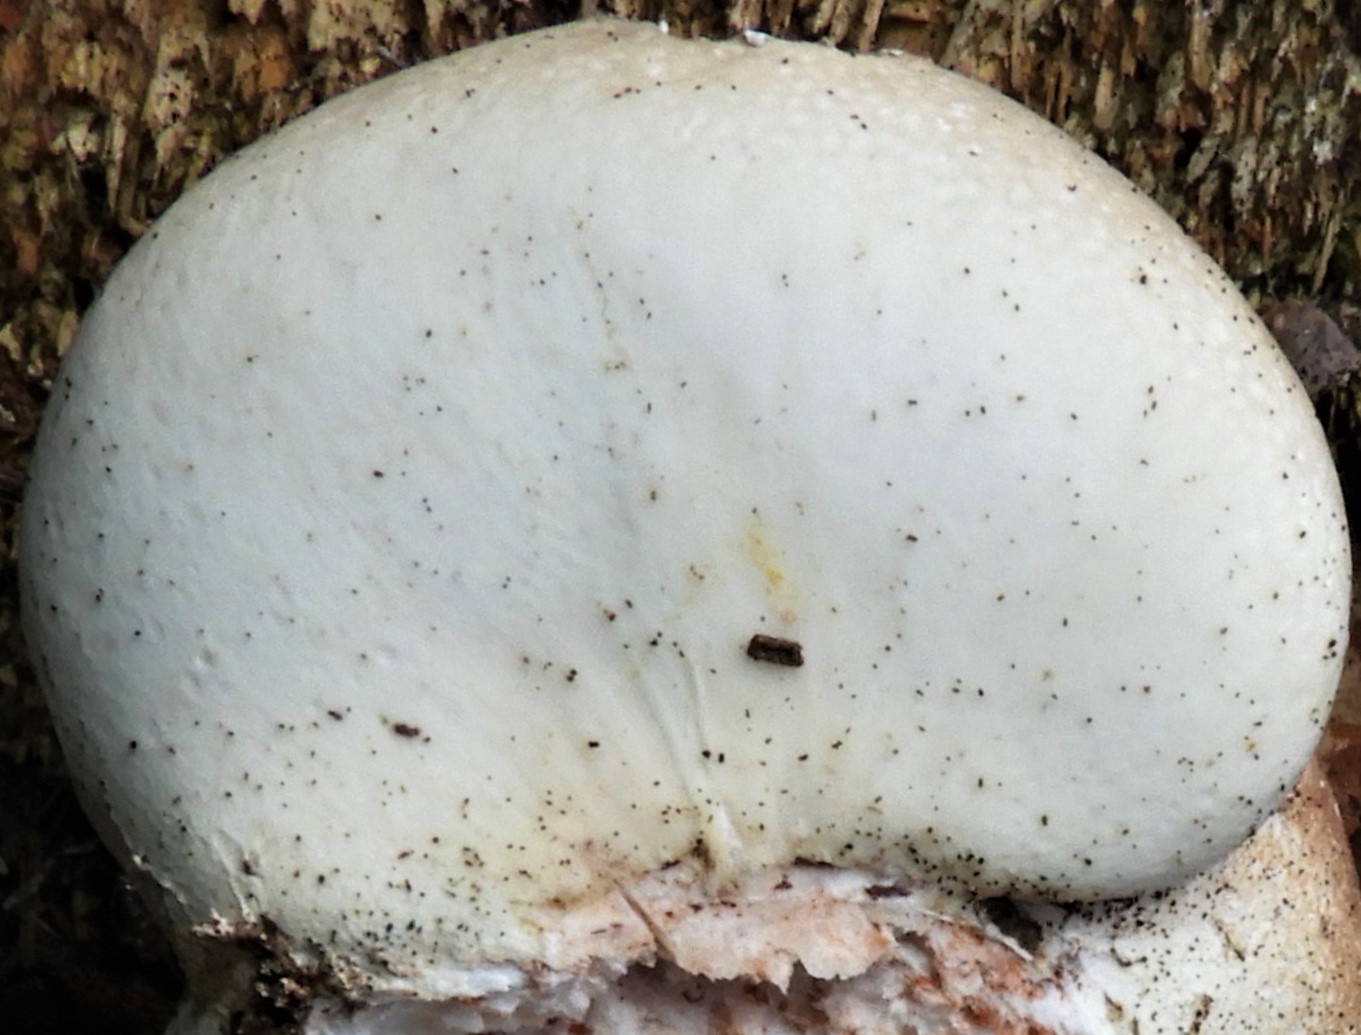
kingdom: Fungi
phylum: Basidiomycota
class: Agaricomycetes
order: Polyporales
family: Fomitopsidaceae
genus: Fomitopsis
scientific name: Fomitopsis betulina
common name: birkeporesvamp
